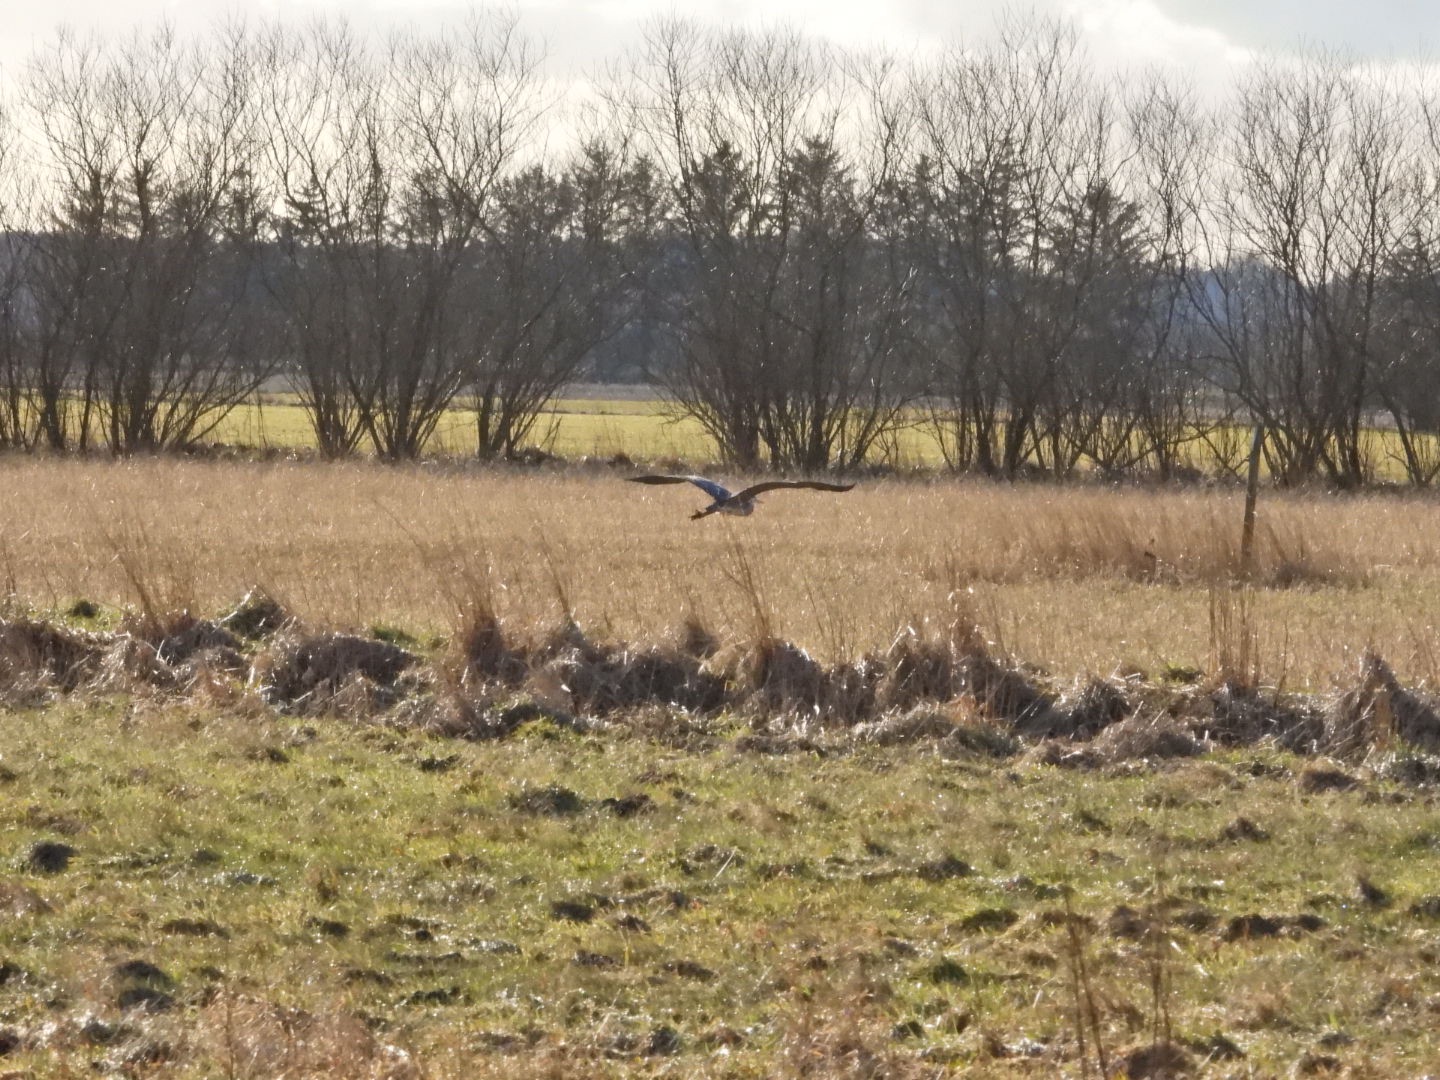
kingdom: Animalia
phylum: Chordata
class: Aves
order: Pelecaniformes
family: Ardeidae
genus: Ardea
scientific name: Ardea cinerea
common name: Fiskehejre
